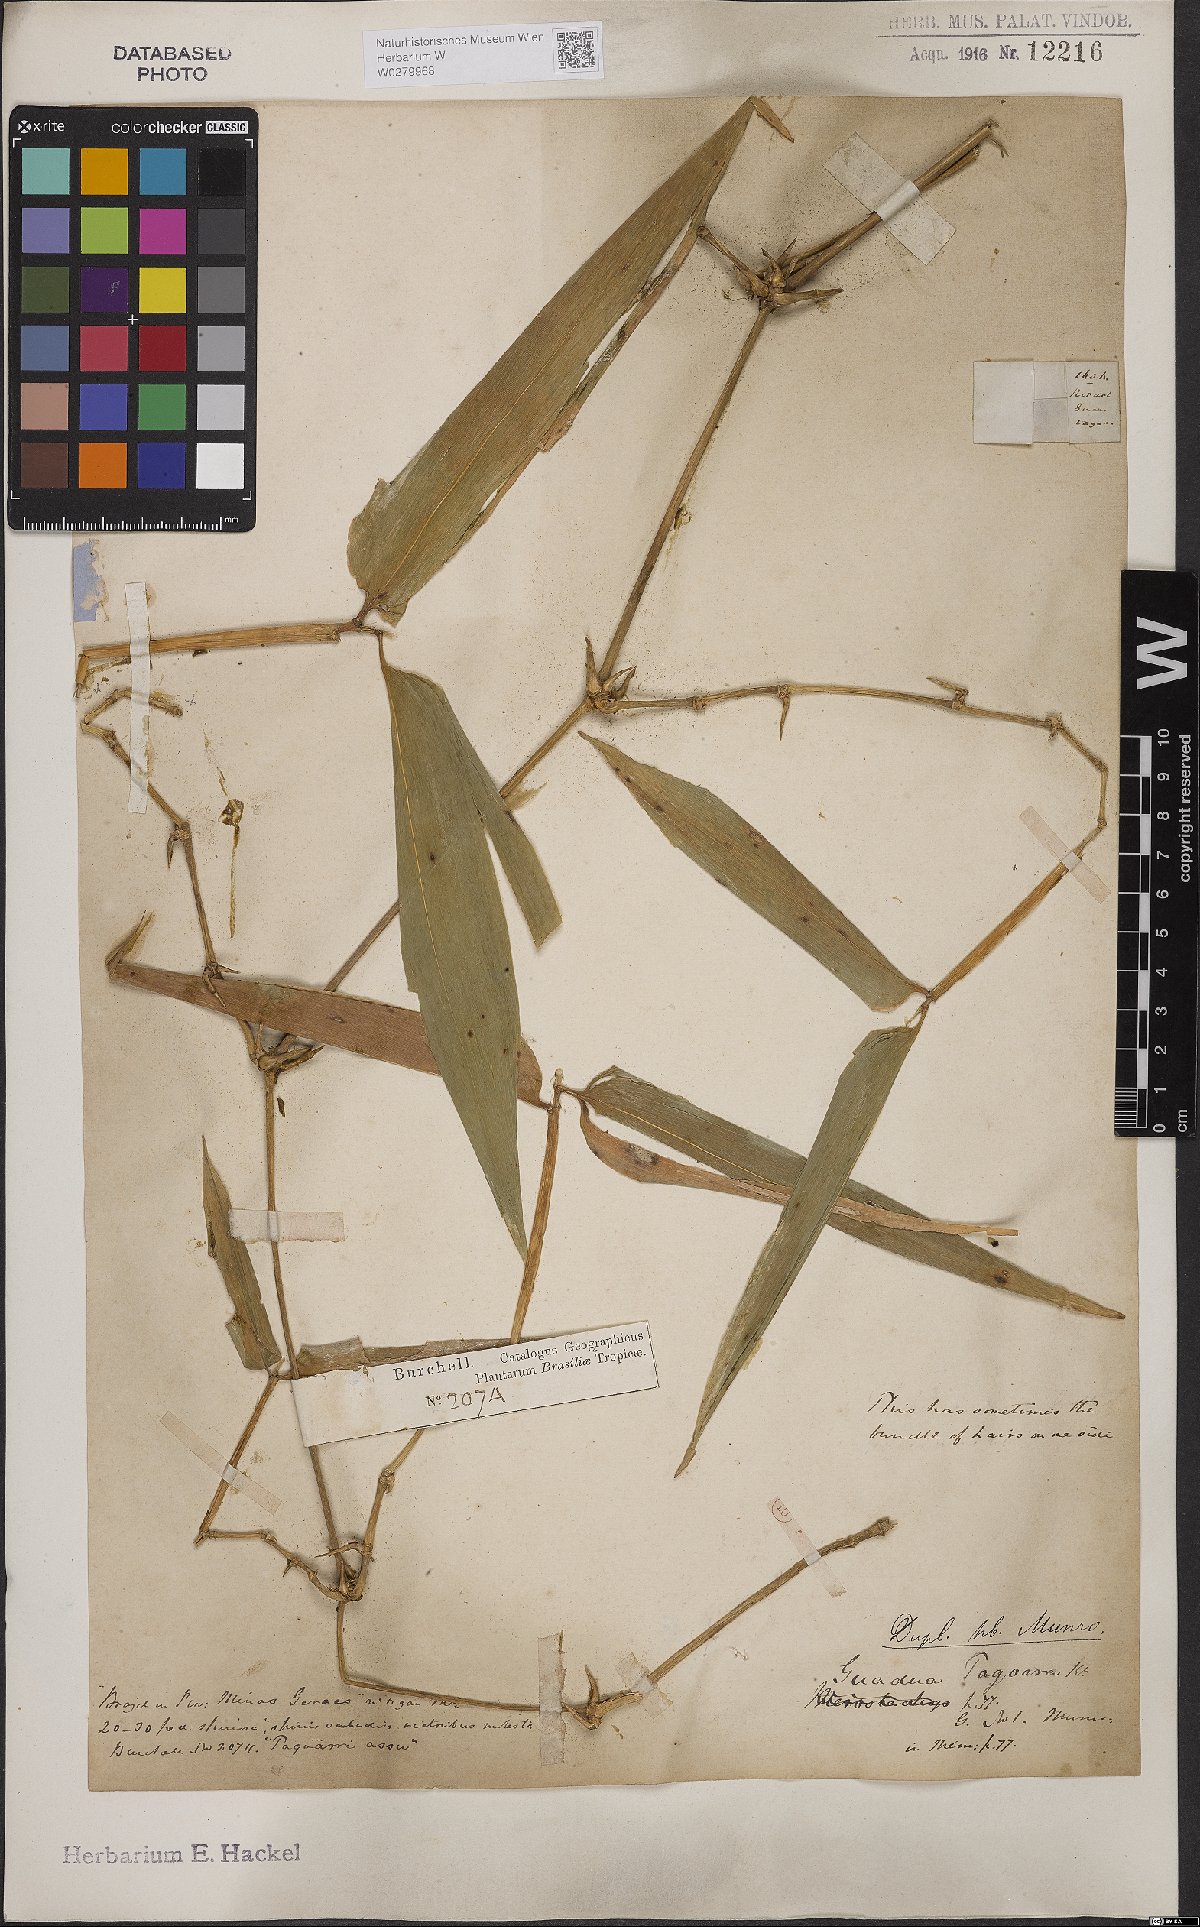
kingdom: Plantae
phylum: Tracheophyta
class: Liliopsida
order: Poales
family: Poaceae
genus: Guadua
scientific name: Guadua tagoara
